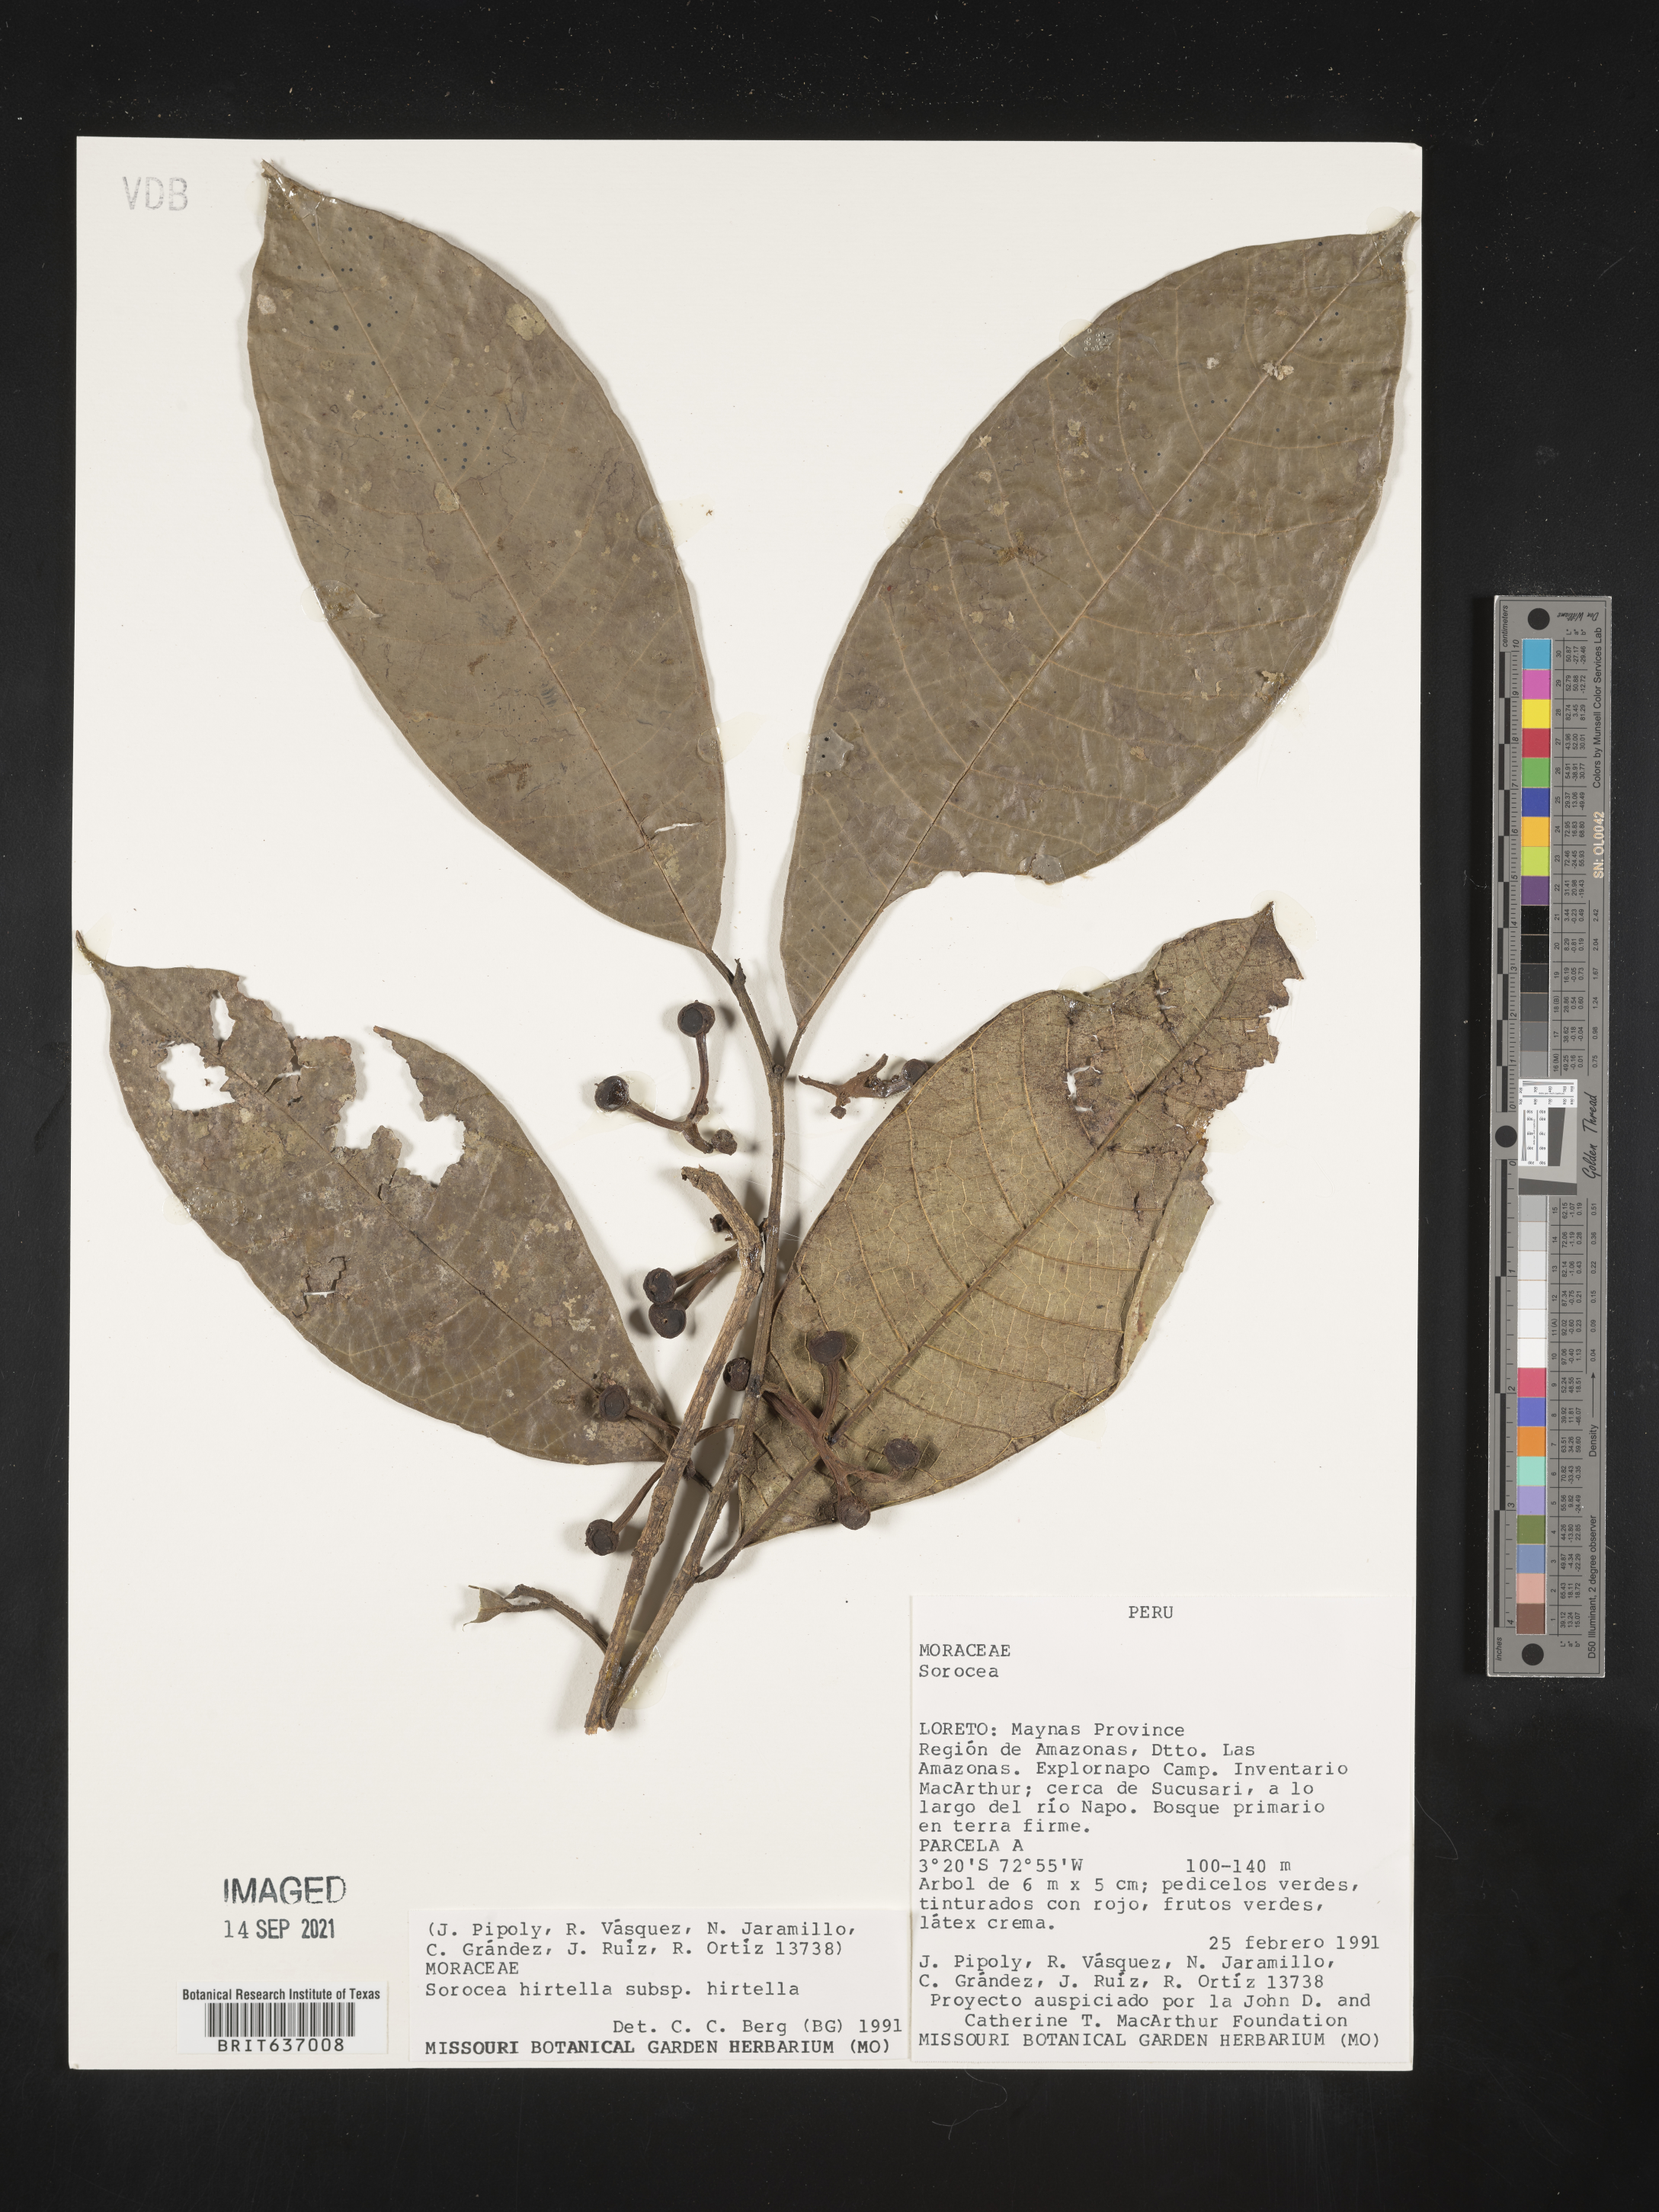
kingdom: Plantae
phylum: Tracheophyta
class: Magnoliopsida
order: Rosales
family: Moraceae
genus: Sorocea
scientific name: Sorocea
